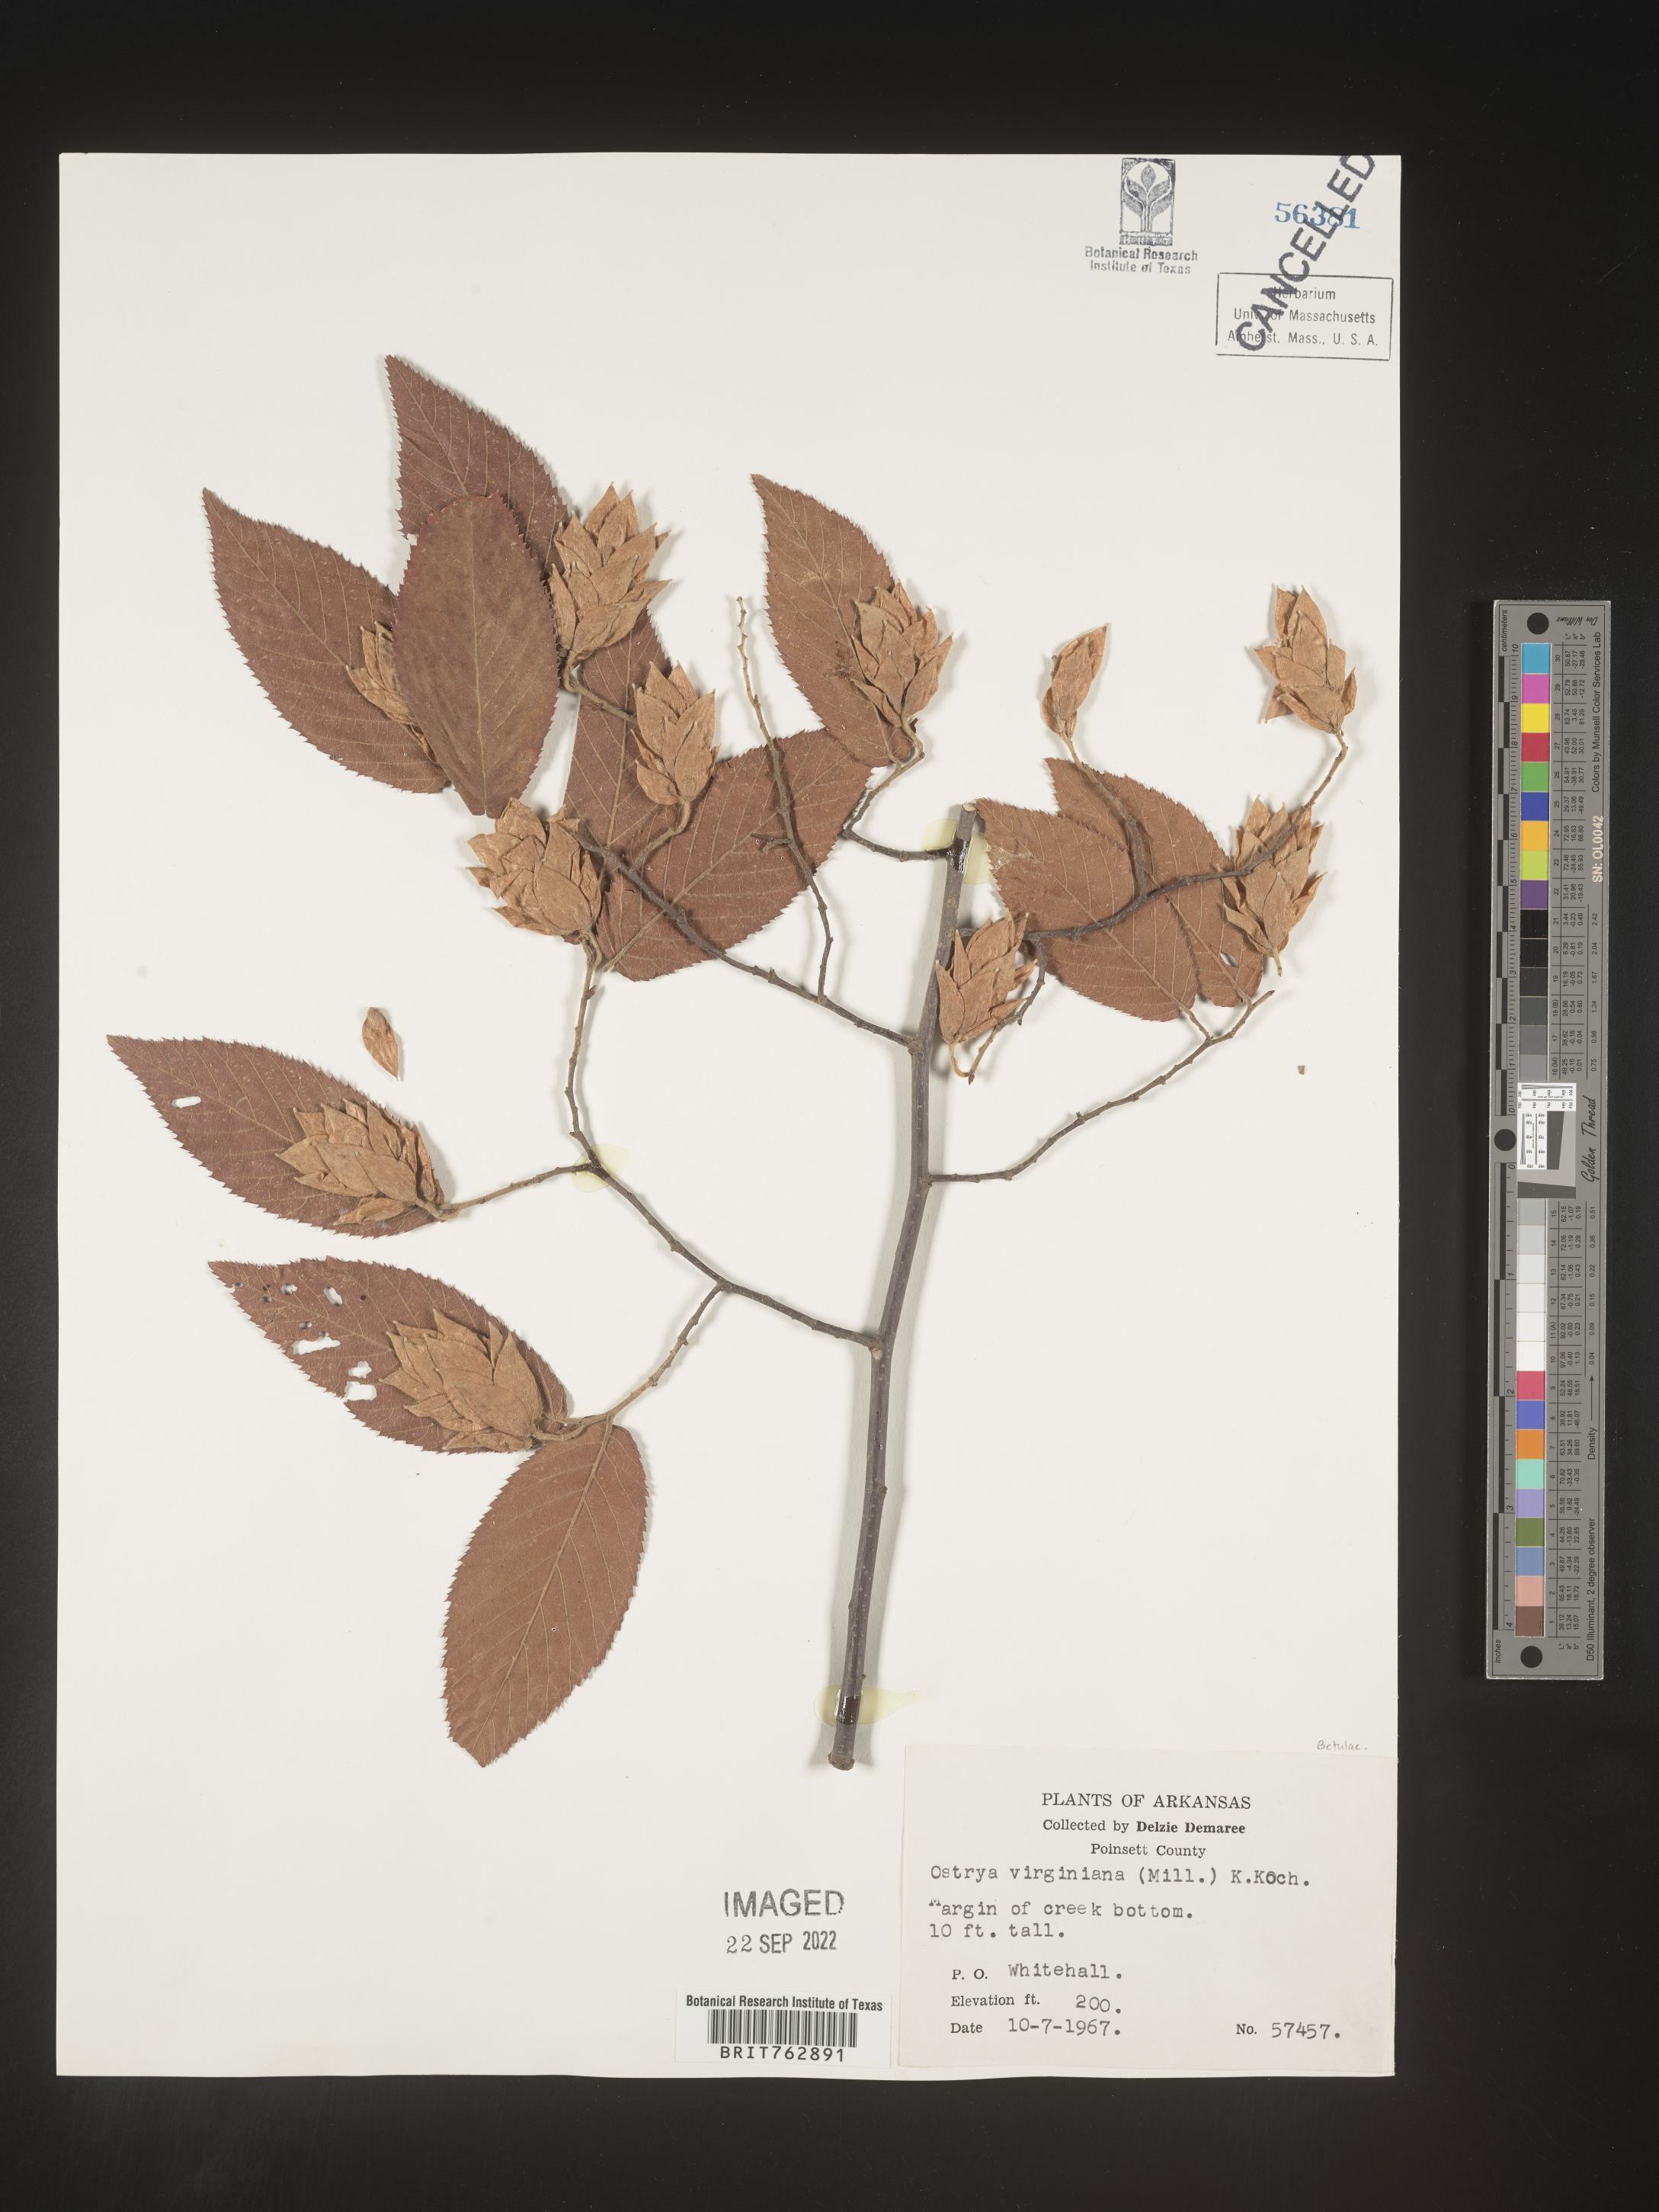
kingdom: Plantae
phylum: Tracheophyta
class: Magnoliopsida
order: Fagales
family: Betulaceae
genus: Ostrya
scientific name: Ostrya virginiana
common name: Ironwood
